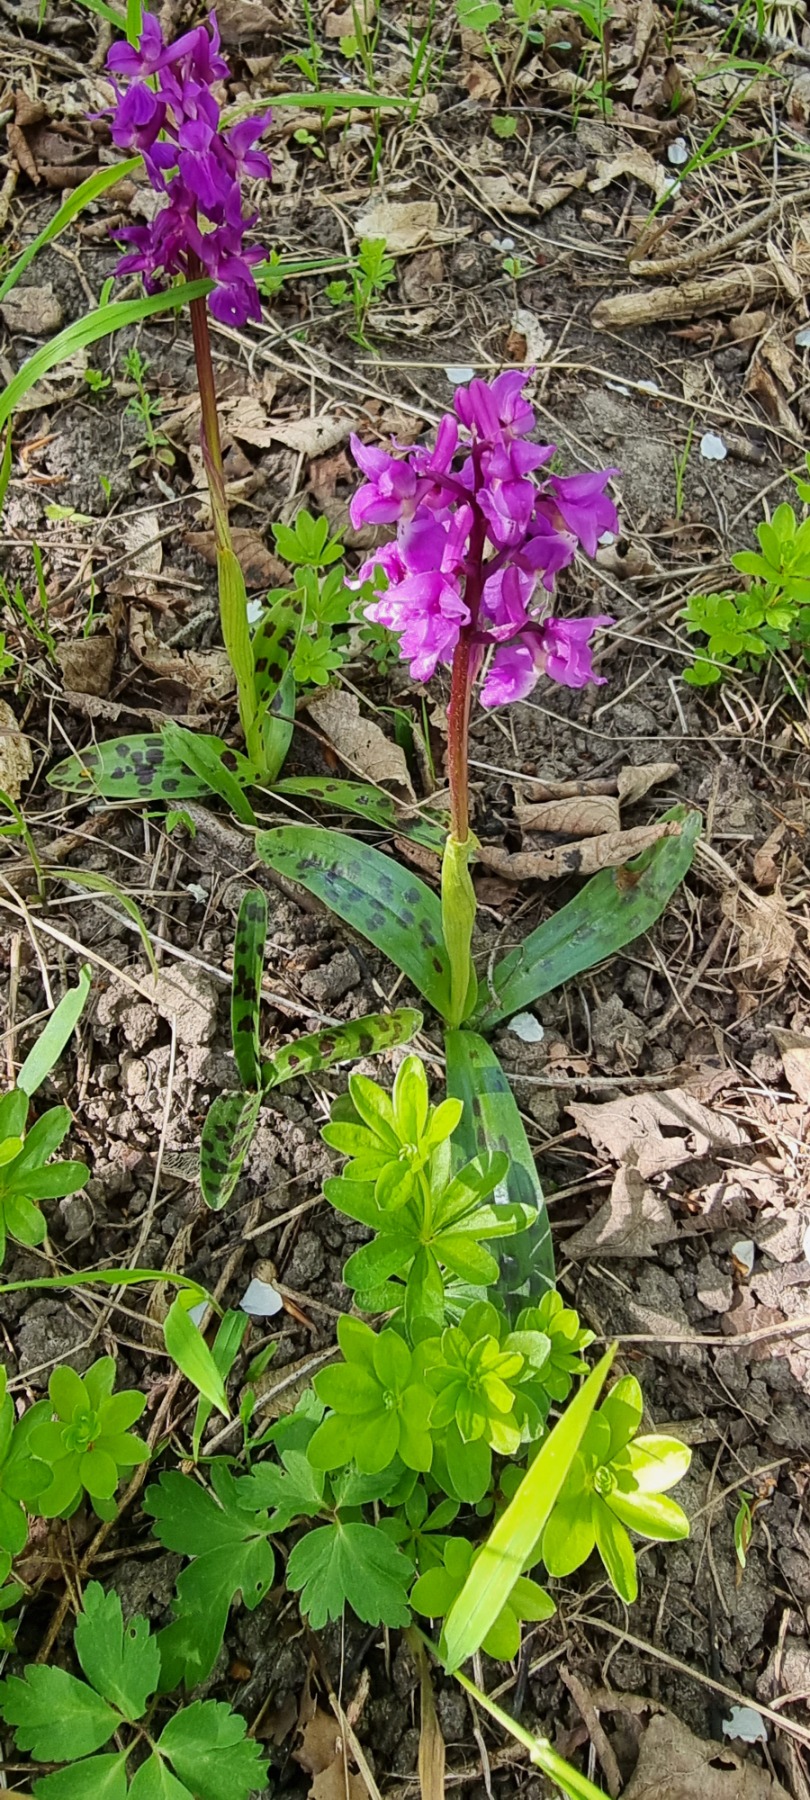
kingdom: Plantae
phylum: Tracheophyta
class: Liliopsida
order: Asparagales
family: Orchidaceae
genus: Orchis
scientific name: Orchis mascula
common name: Tyndakset gøgeurt
